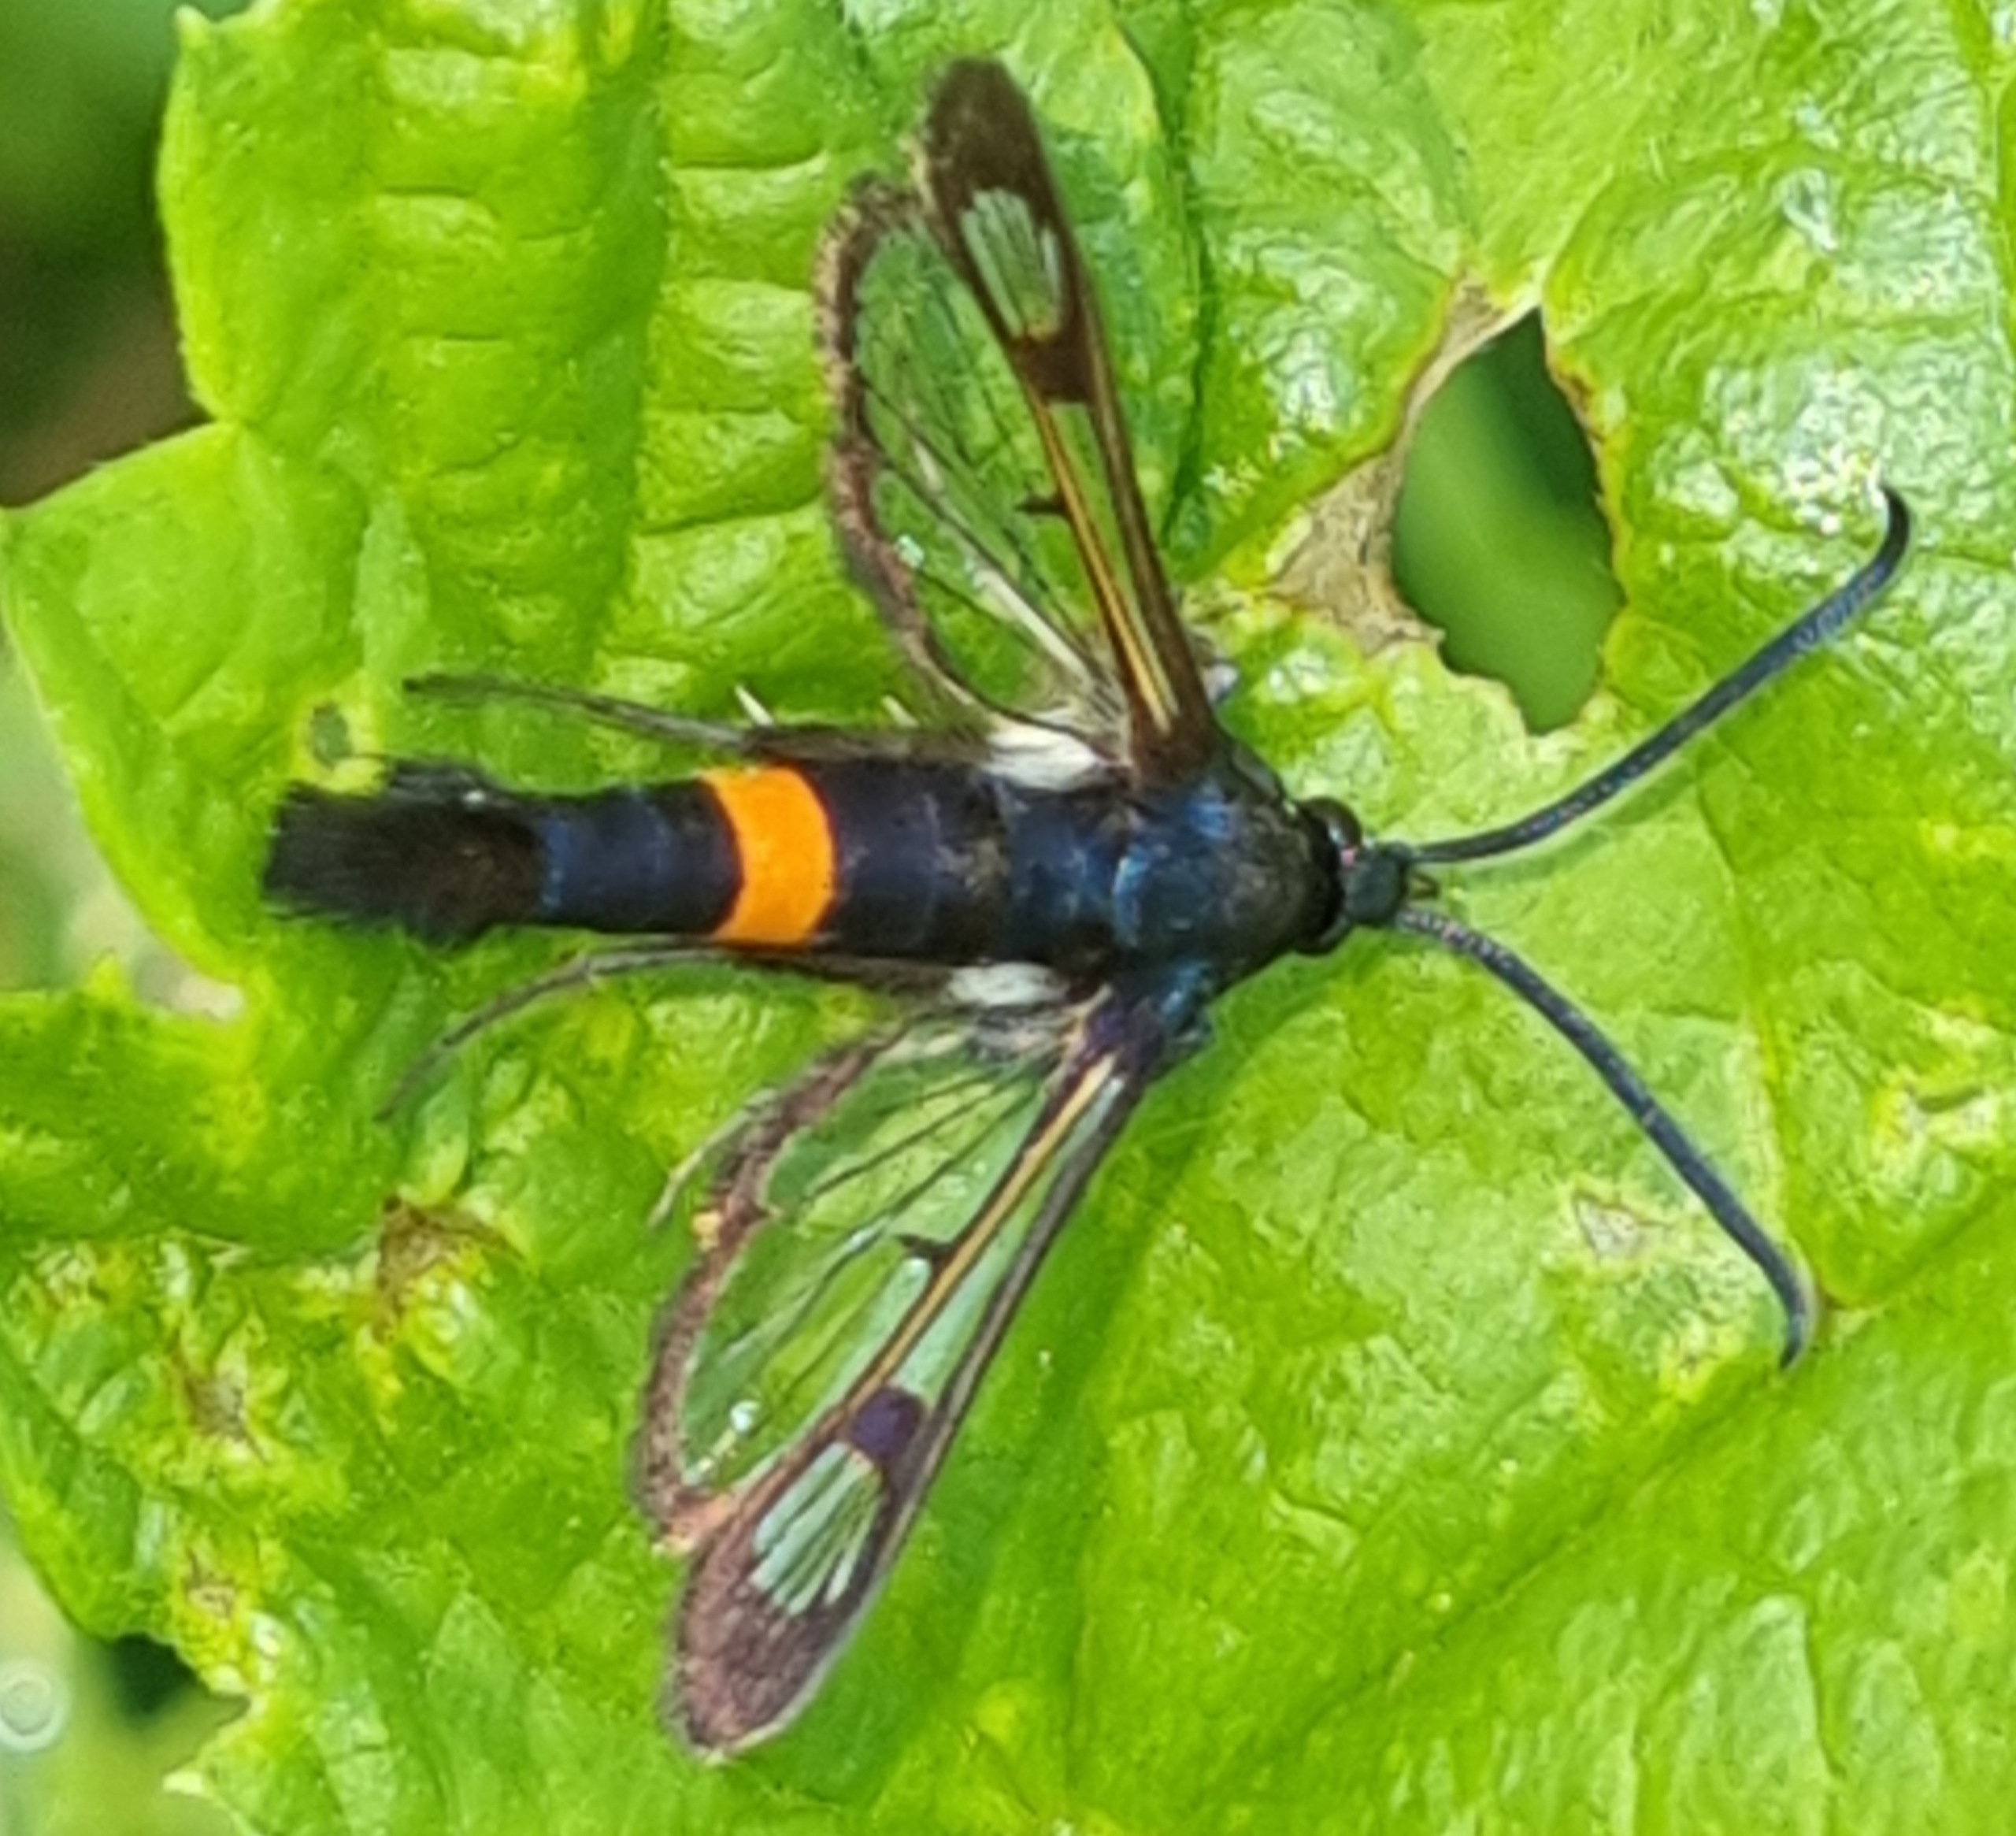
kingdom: Animalia
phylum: Arthropoda
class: Insecta
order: Lepidoptera
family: Sesiidae
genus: Synanthedon
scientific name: Synanthedon myopaeformis
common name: Æbleglassværmer
